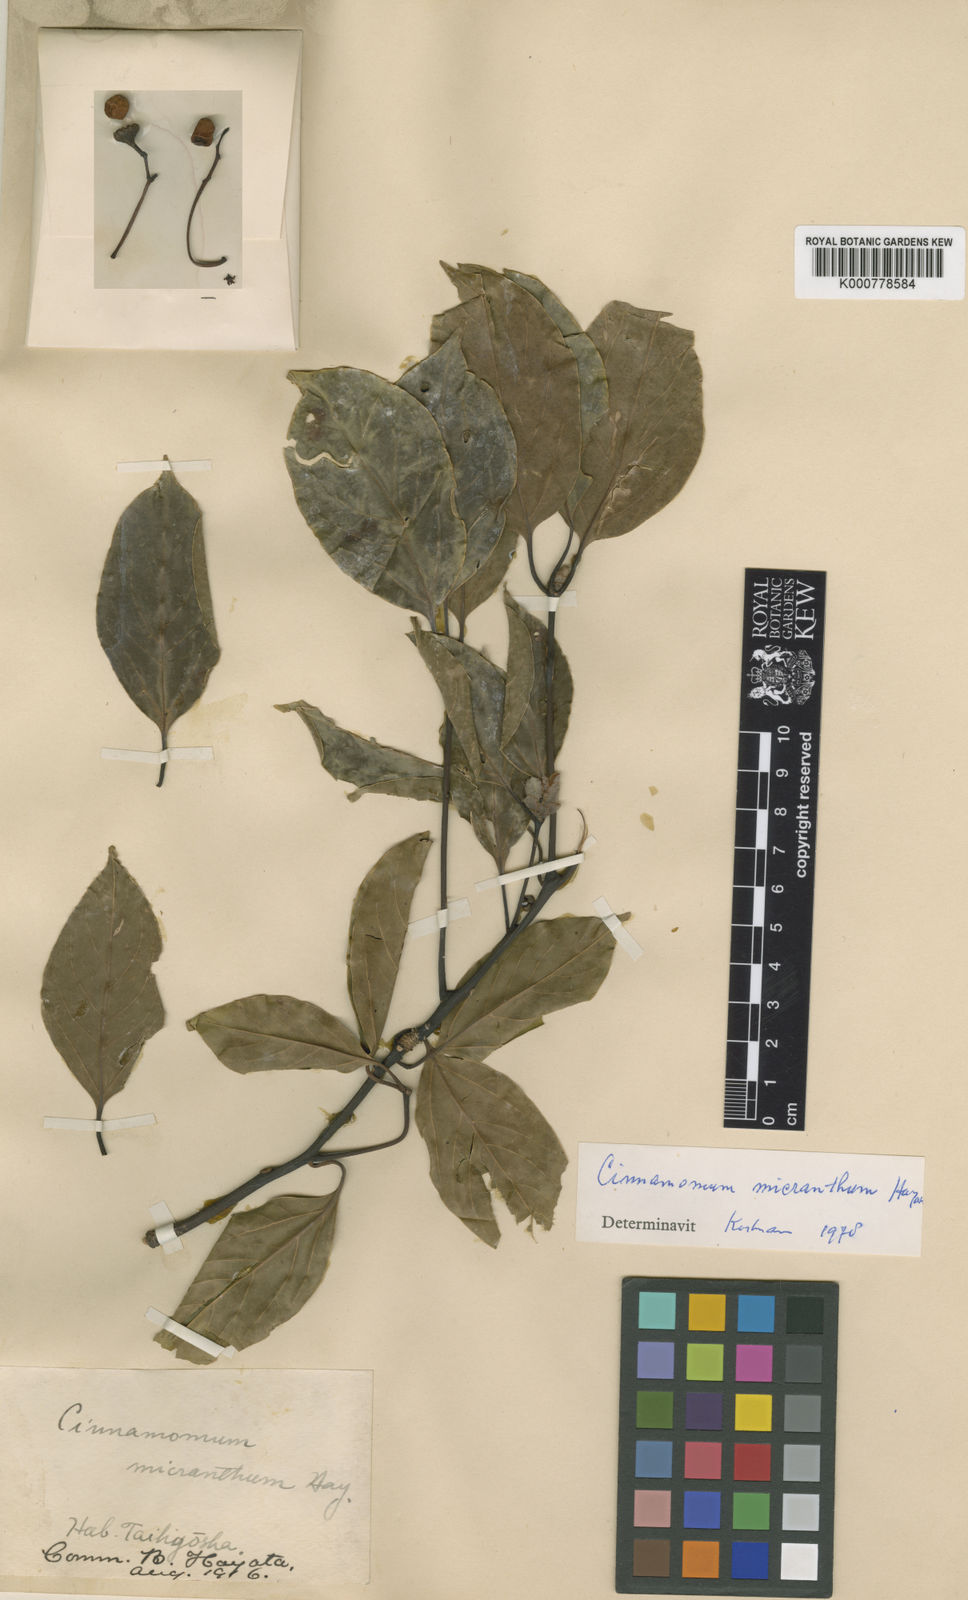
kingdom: Plantae
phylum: Tracheophyta
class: Magnoliopsida
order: Laurales
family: Lauraceae
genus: Cinnamomum
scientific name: Cinnamomum micranthum
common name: Chinese-sassafras
